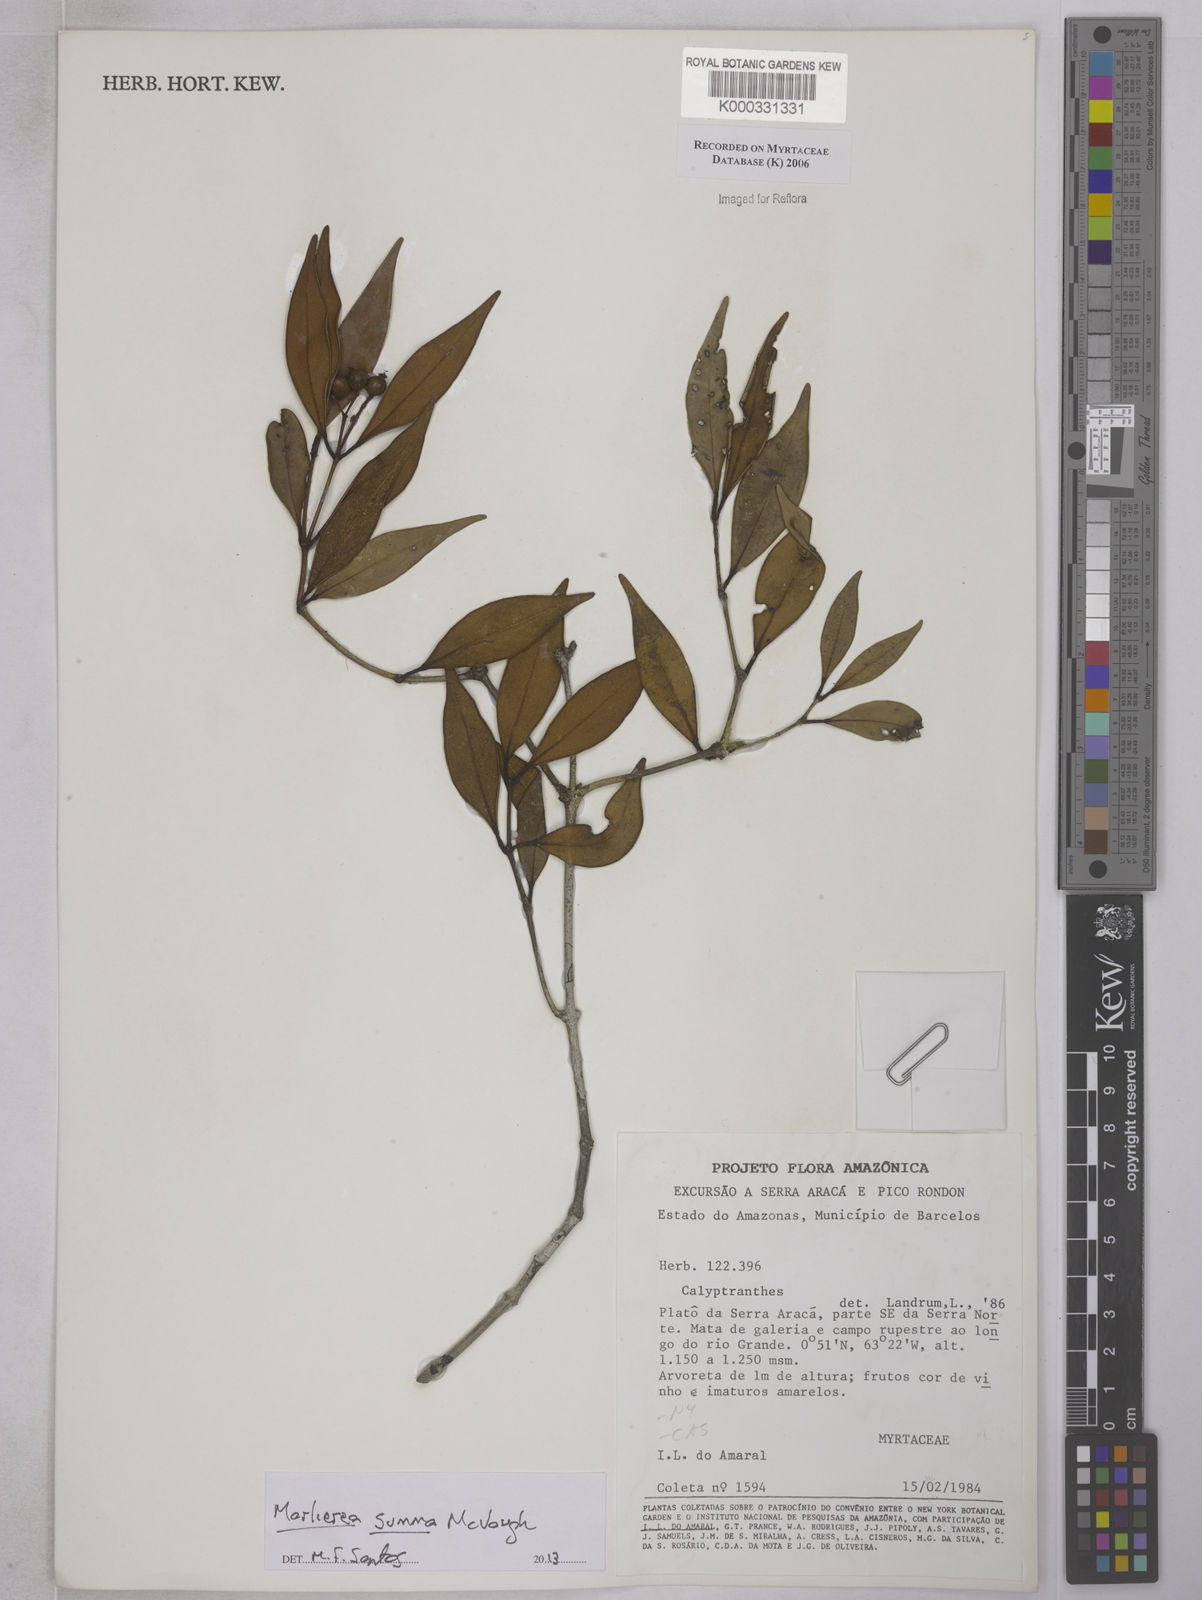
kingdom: Plantae
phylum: Tracheophyta
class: Magnoliopsida
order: Myrtales
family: Myrtaceae
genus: Calyptranthes
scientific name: Calyptranthes
